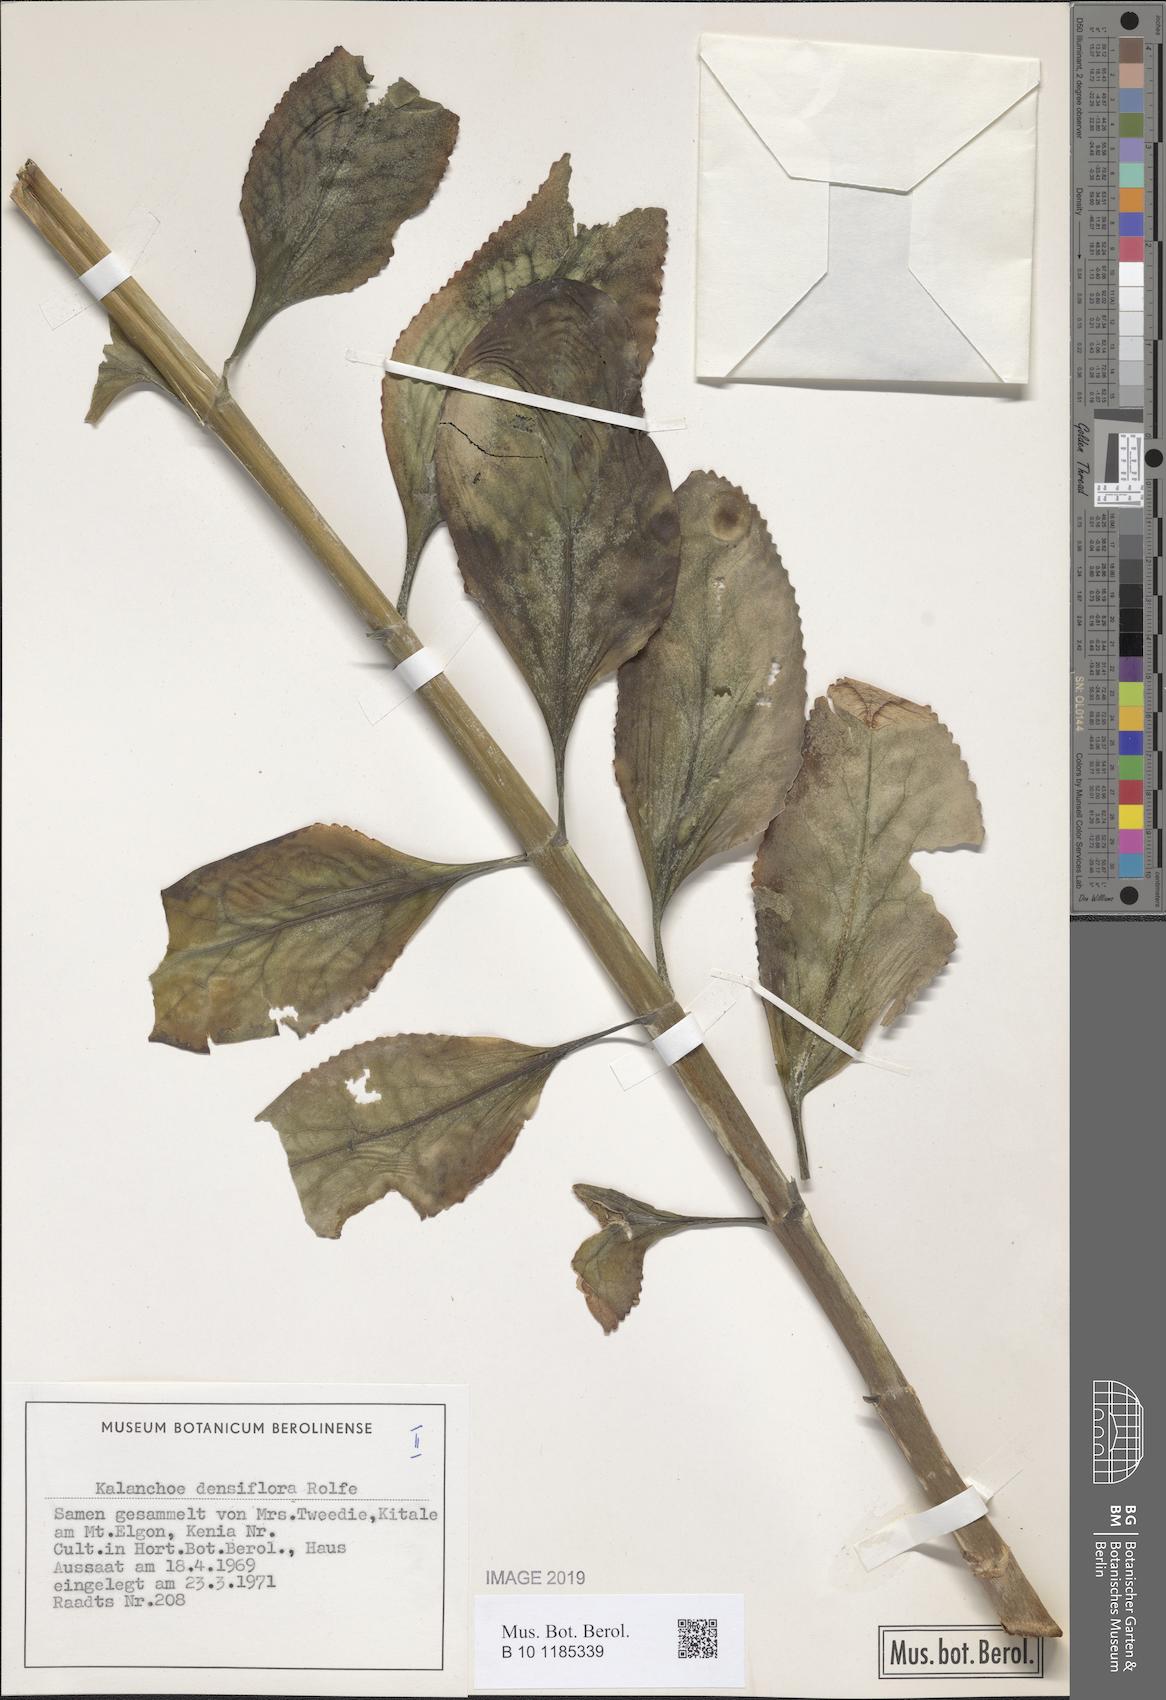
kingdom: Plantae
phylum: Tracheophyta
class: Magnoliopsida
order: Saxifragales
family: Crassulaceae
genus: Kalanchoe
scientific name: Kalanchoe densiflora
